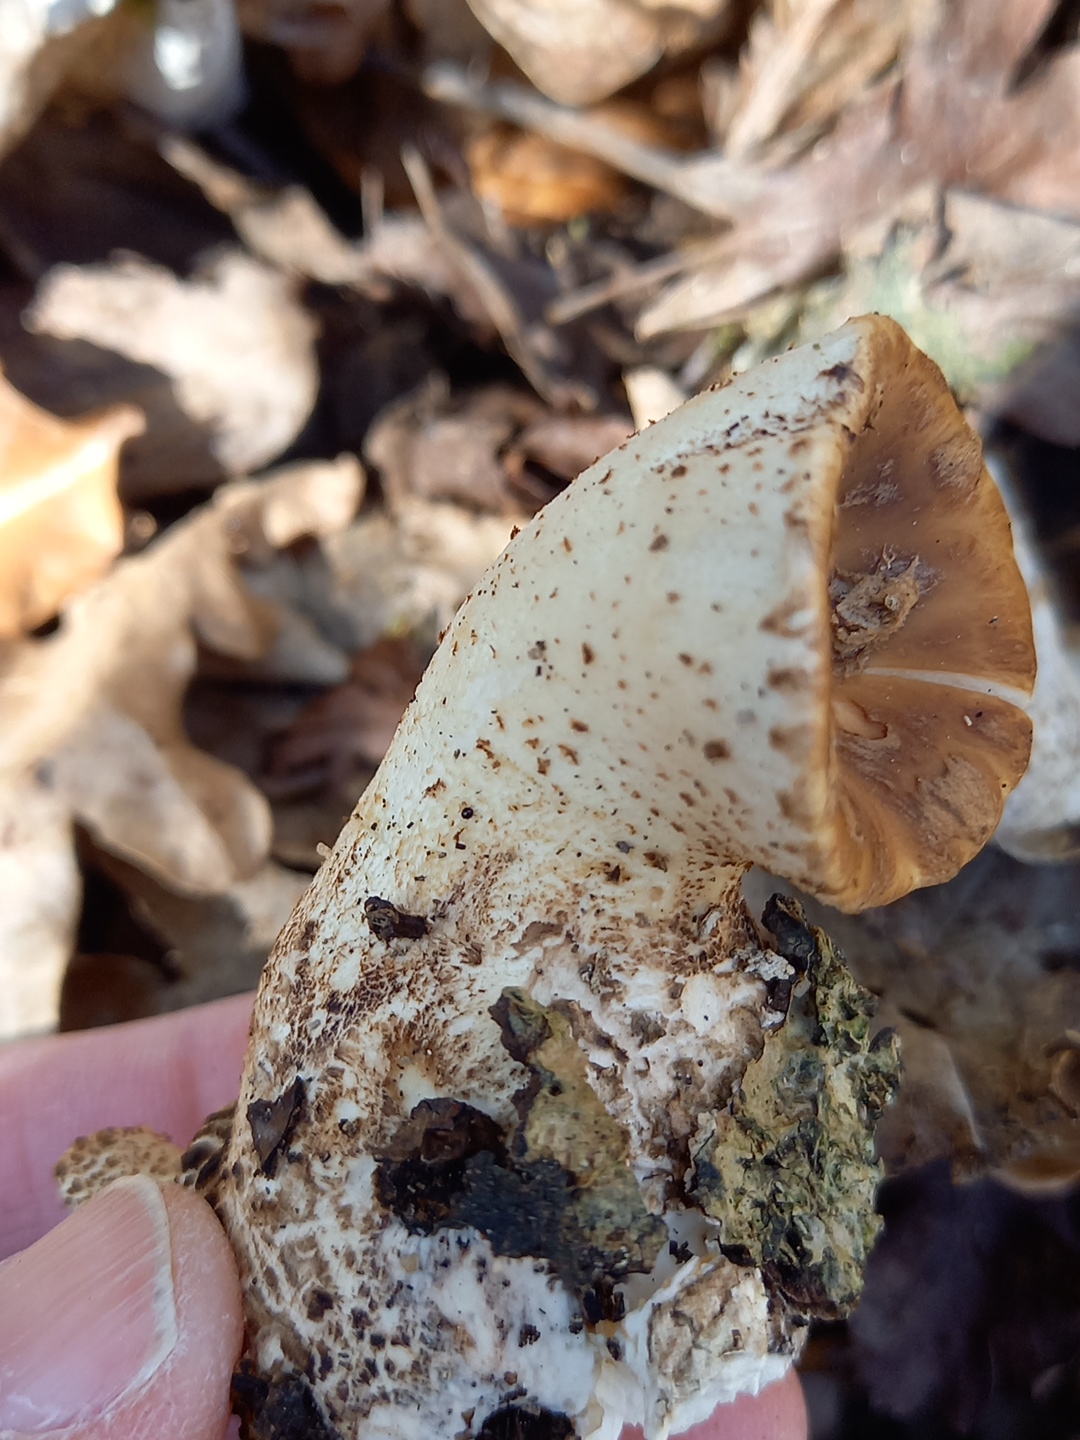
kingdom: Fungi
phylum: Basidiomycota
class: Agaricomycetes
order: Polyporales
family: Polyporaceae
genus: Cerioporus
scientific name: Cerioporus squamosus
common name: skællet stilkporesvamp
